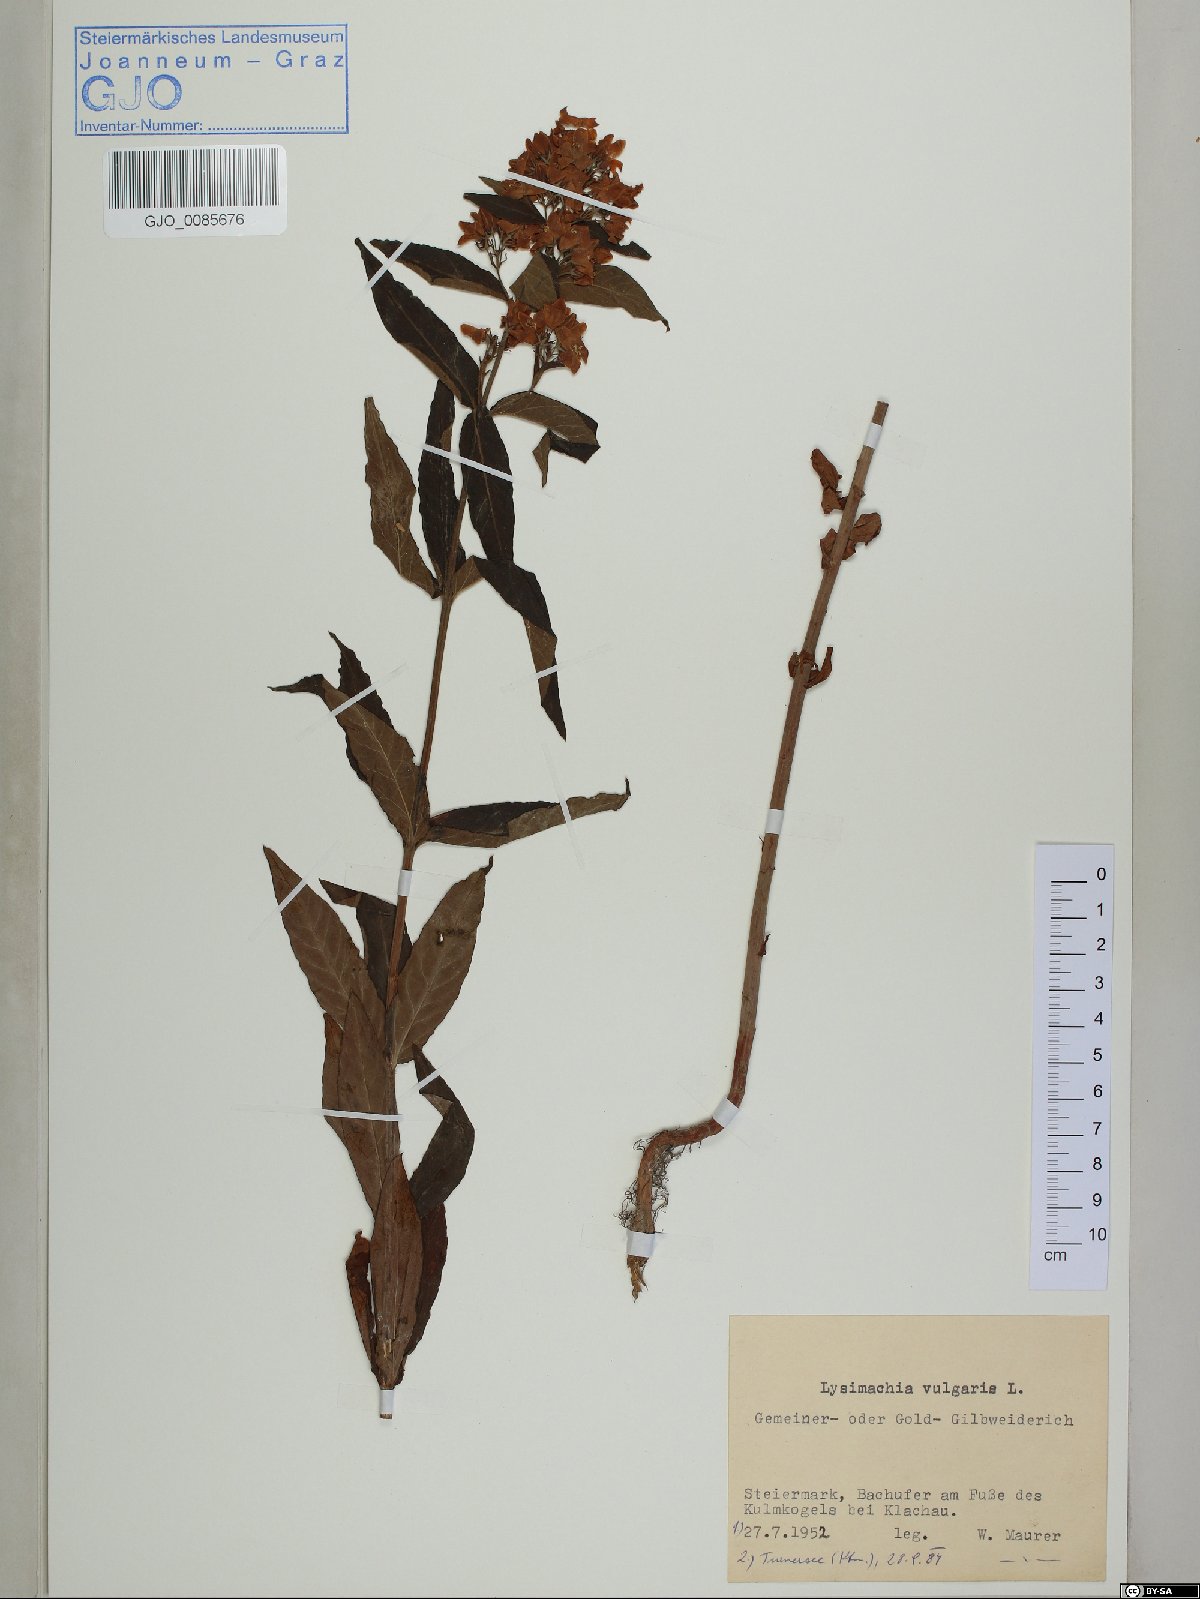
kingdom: Plantae
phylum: Tracheophyta
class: Magnoliopsida
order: Ericales
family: Primulaceae
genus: Lysimachia
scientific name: Lysimachia vulgaris
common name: Yellow loosestrife
